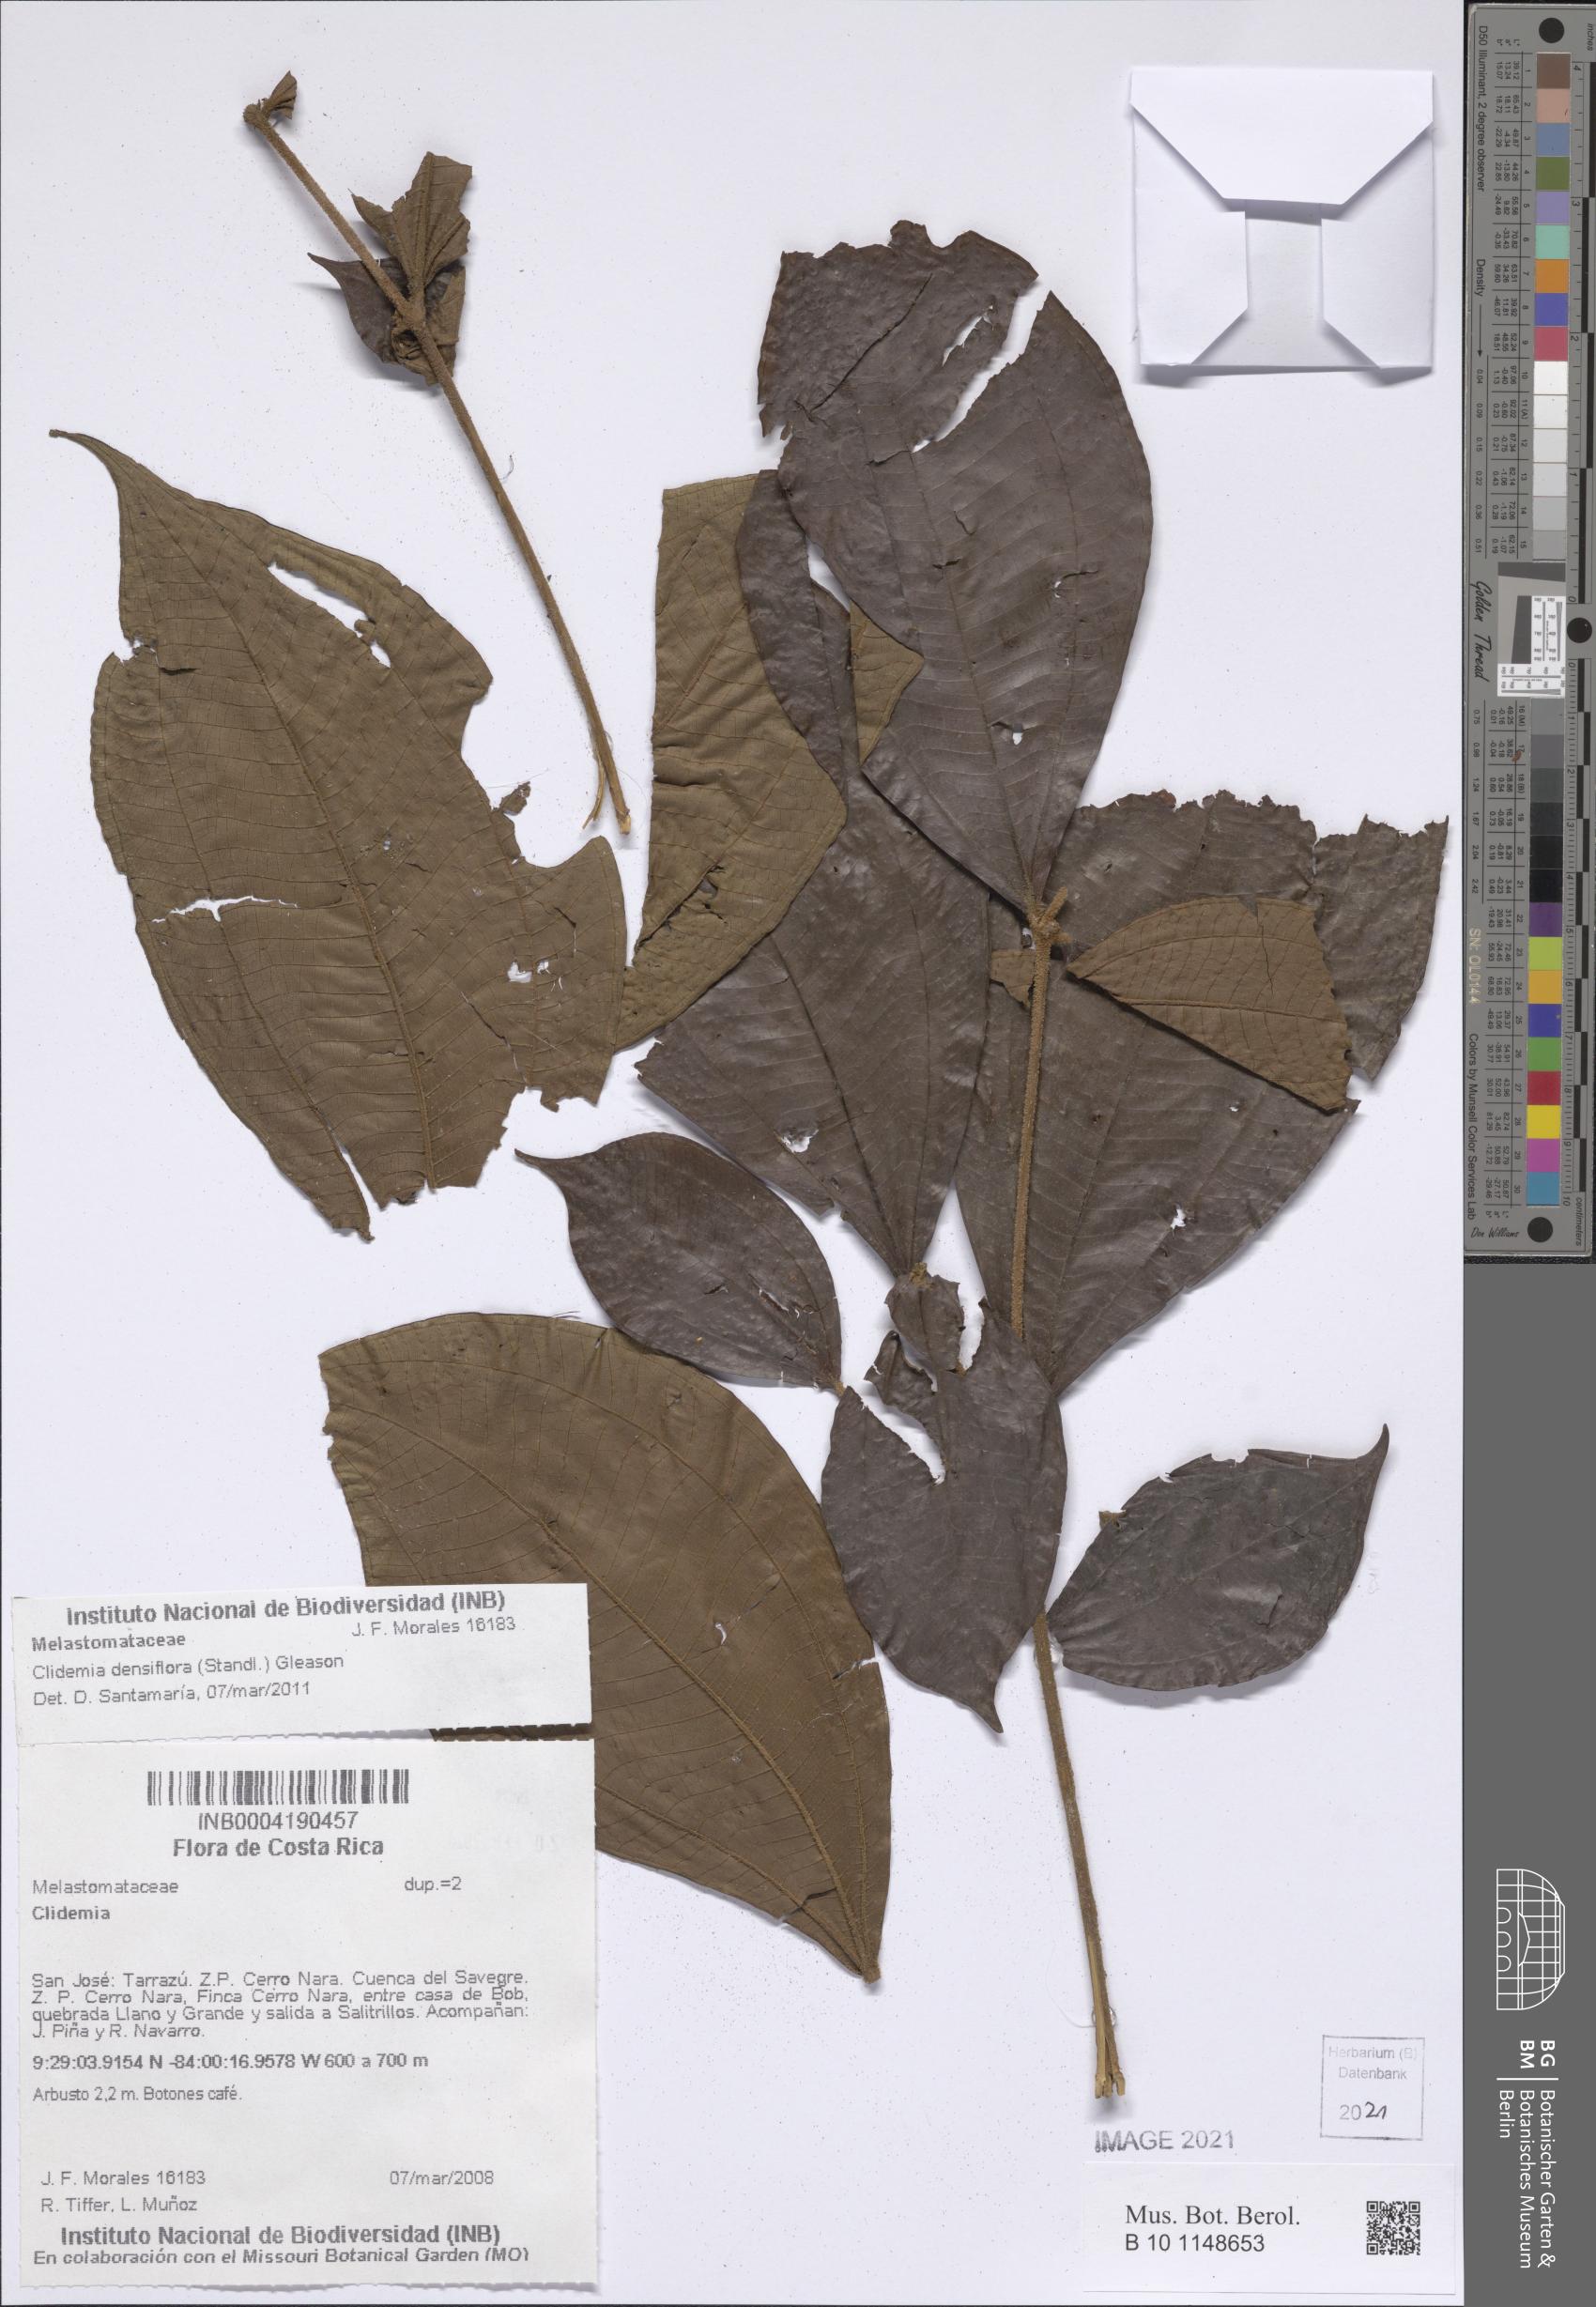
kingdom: Plantae
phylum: Tracheophyta
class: Magnoliopsida
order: Myrtales
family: Melastomataceae
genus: Miconia
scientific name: Miconia approximata
